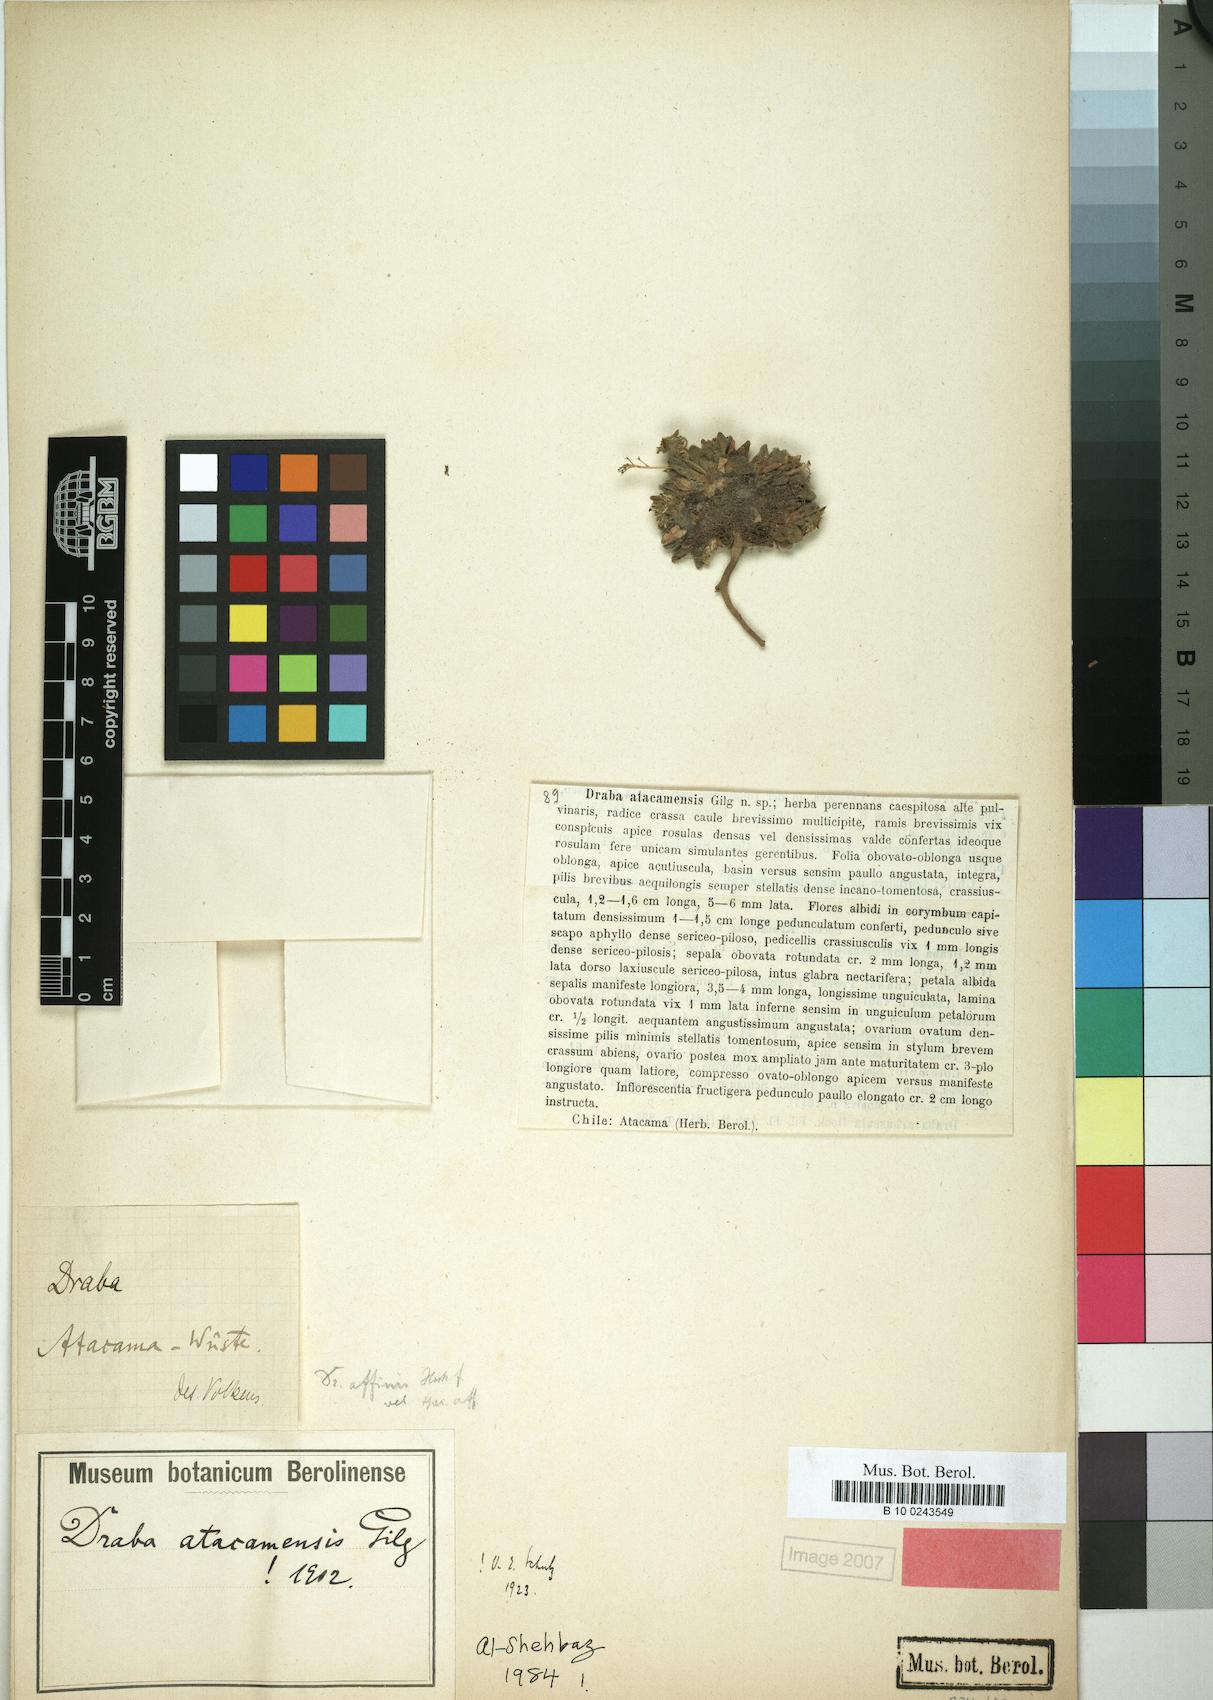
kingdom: Plantae
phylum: Tracheophyta
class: Magnoliopsida
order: Brassicales
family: Brassicaceae
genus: Draba
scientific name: Draba macleanii
